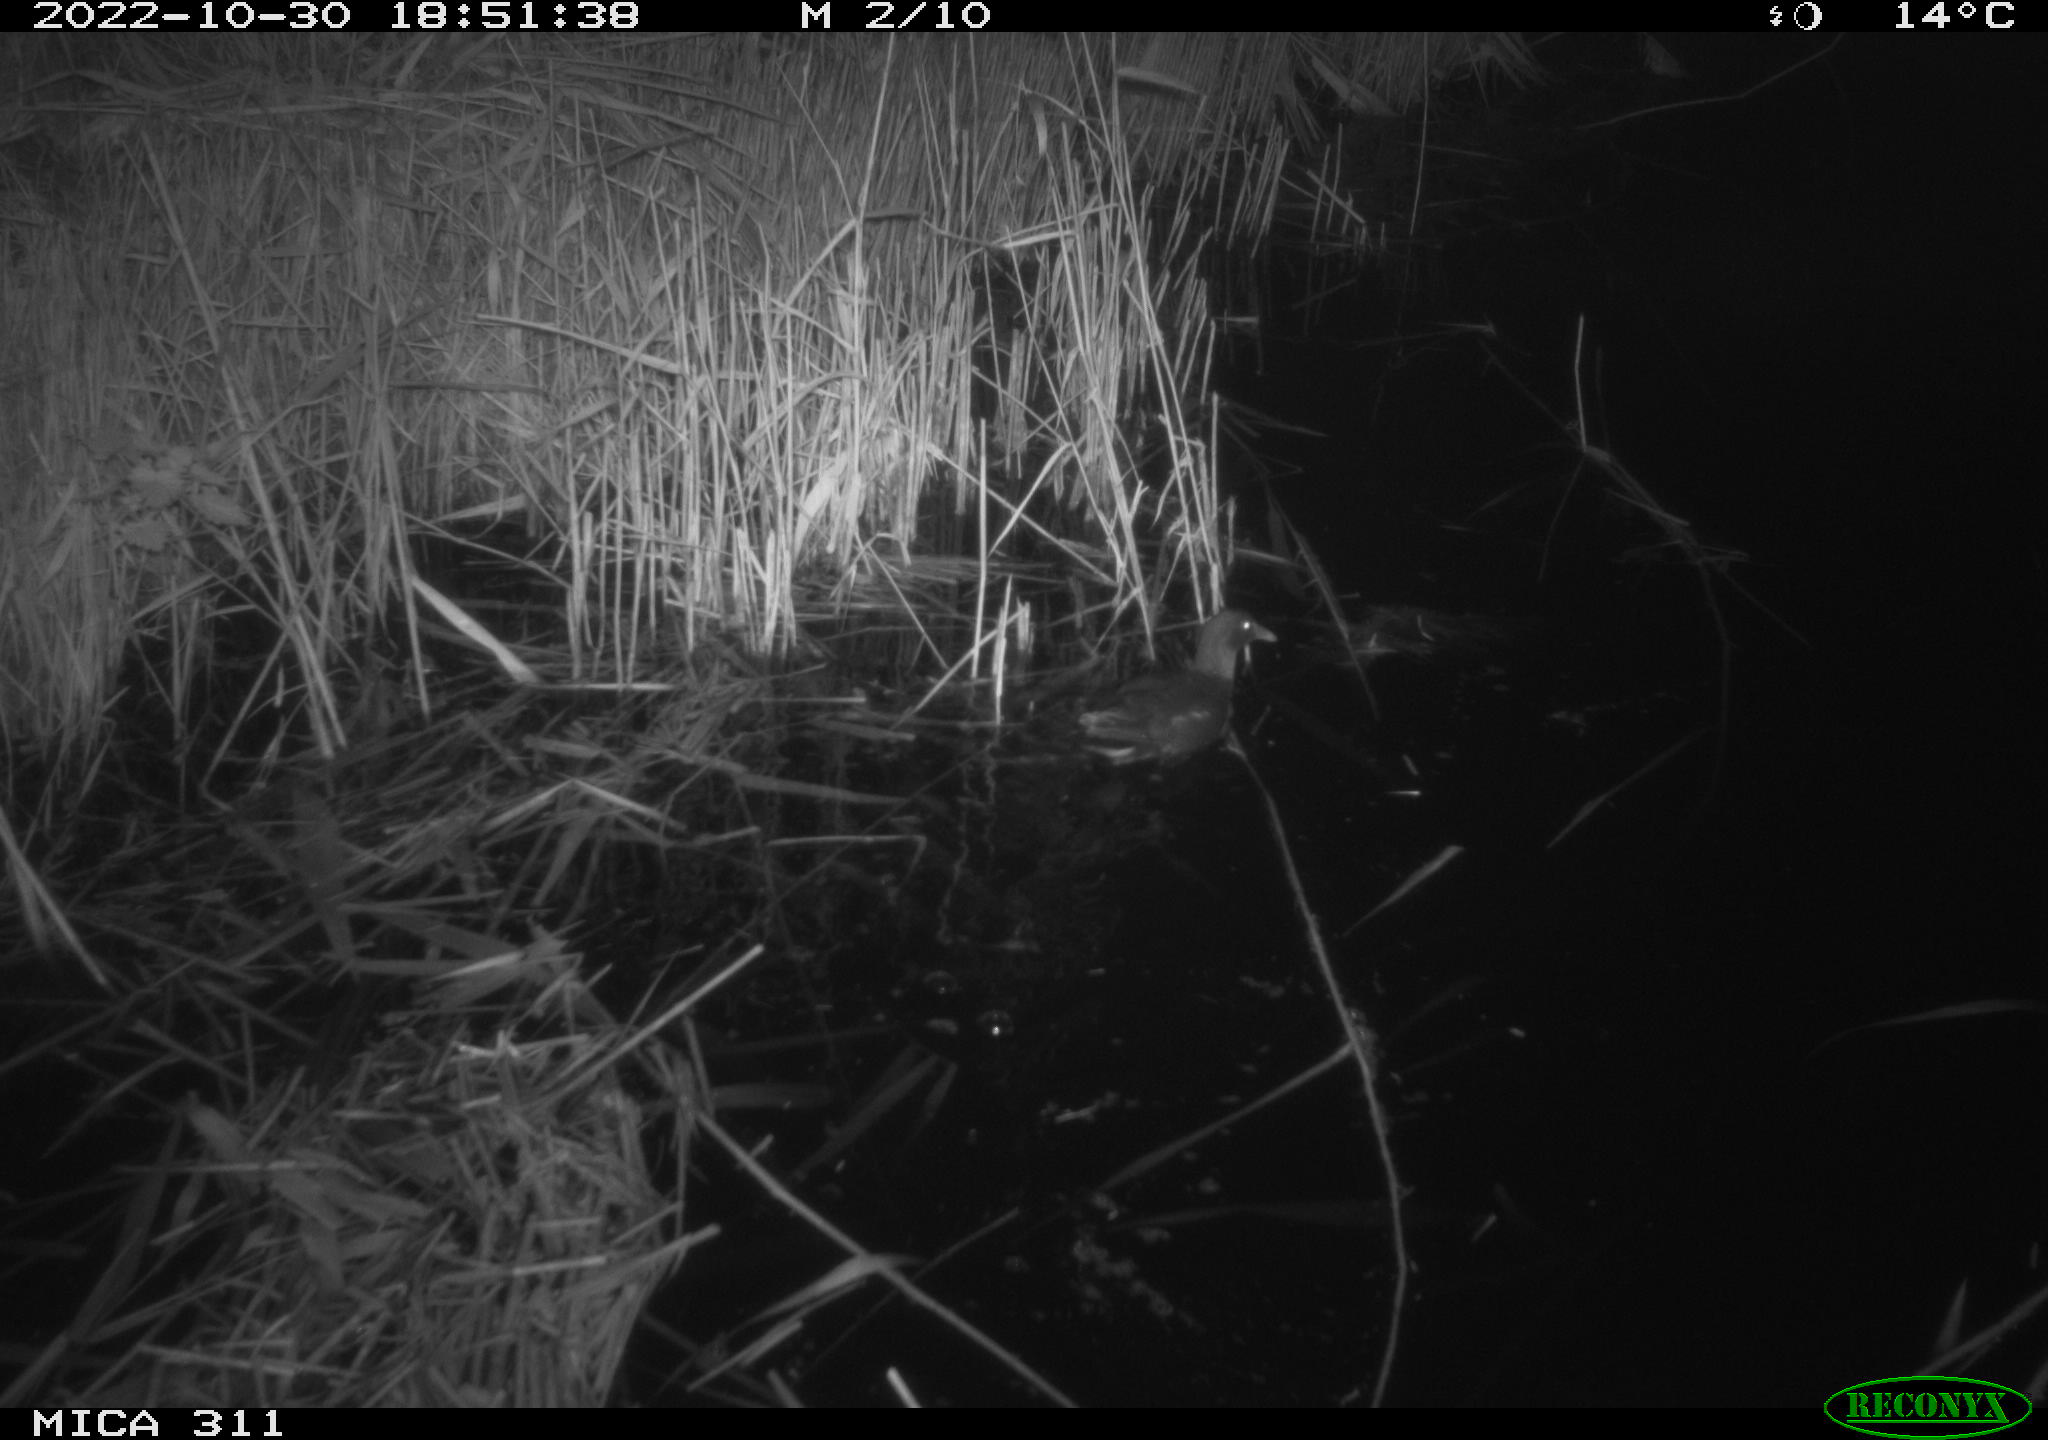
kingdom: Animalia
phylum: Chordata
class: Aves
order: Gruiformes
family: Rallidae
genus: Gallinula
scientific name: Gallinula chloropus
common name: Common moorhen
